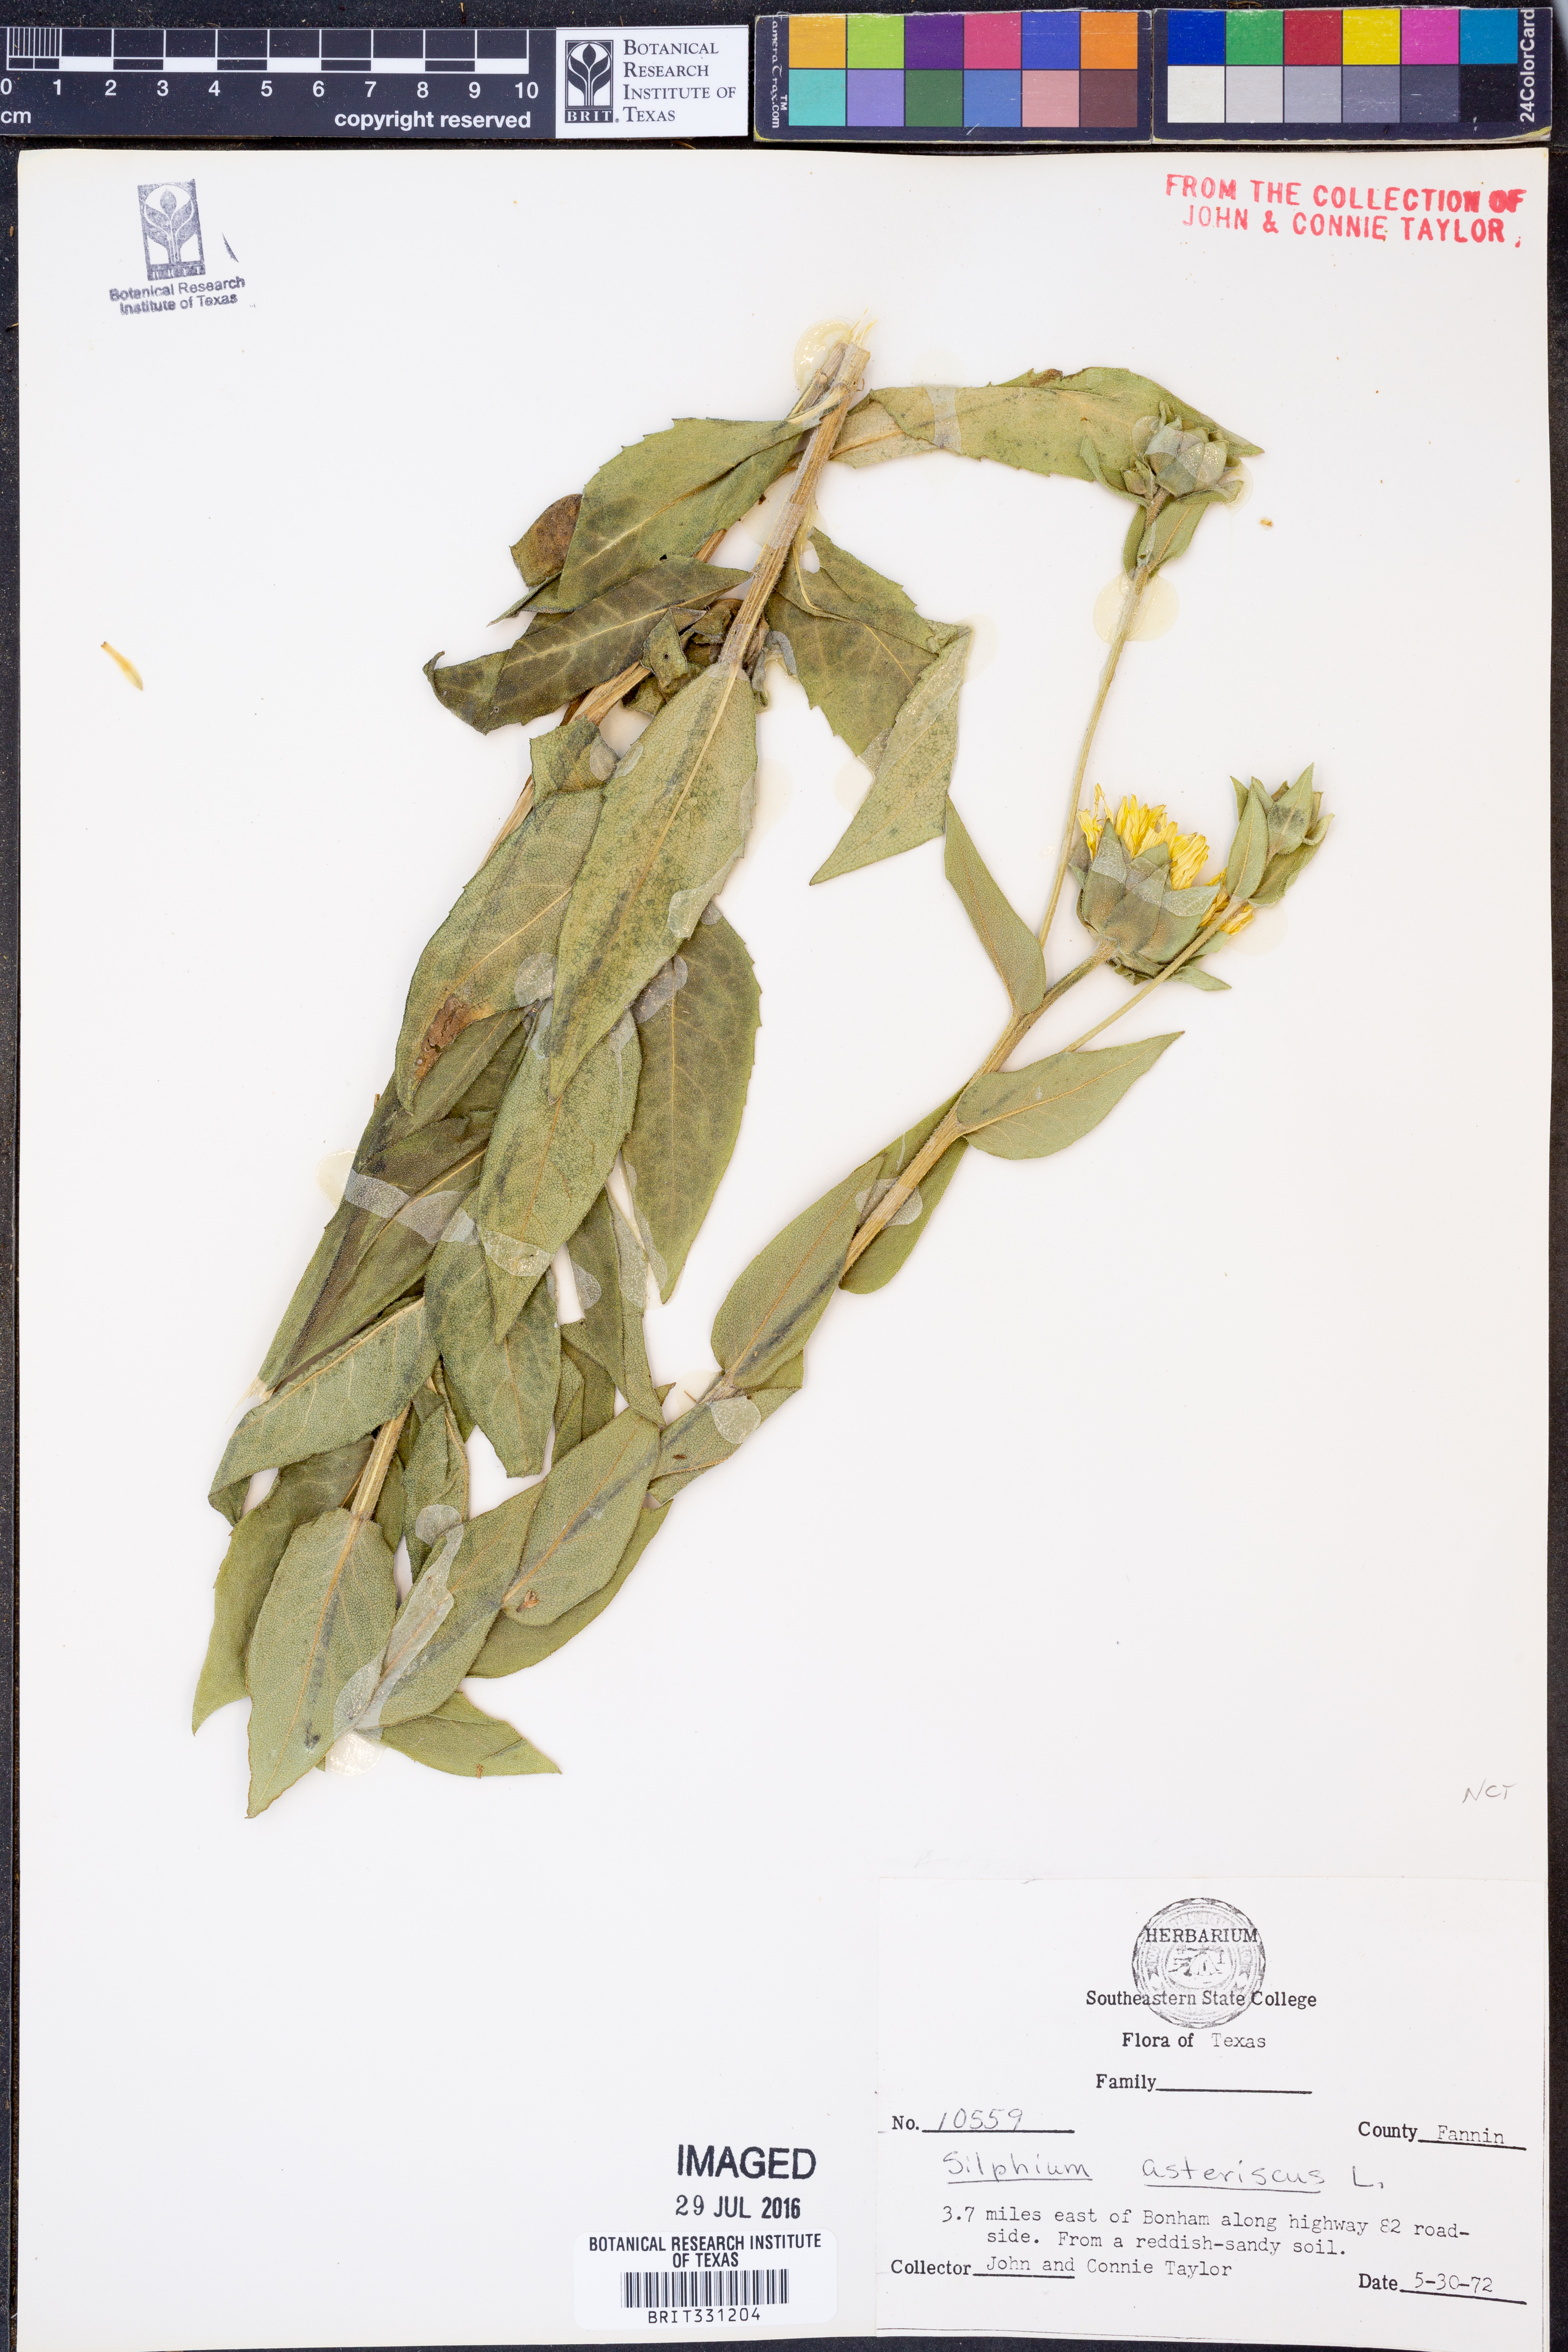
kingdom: Plantae
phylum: Tracheophyta
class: Magnoliopsida
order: Asterales
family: Asteraceae
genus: Silphium
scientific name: Silphium asteriscus
